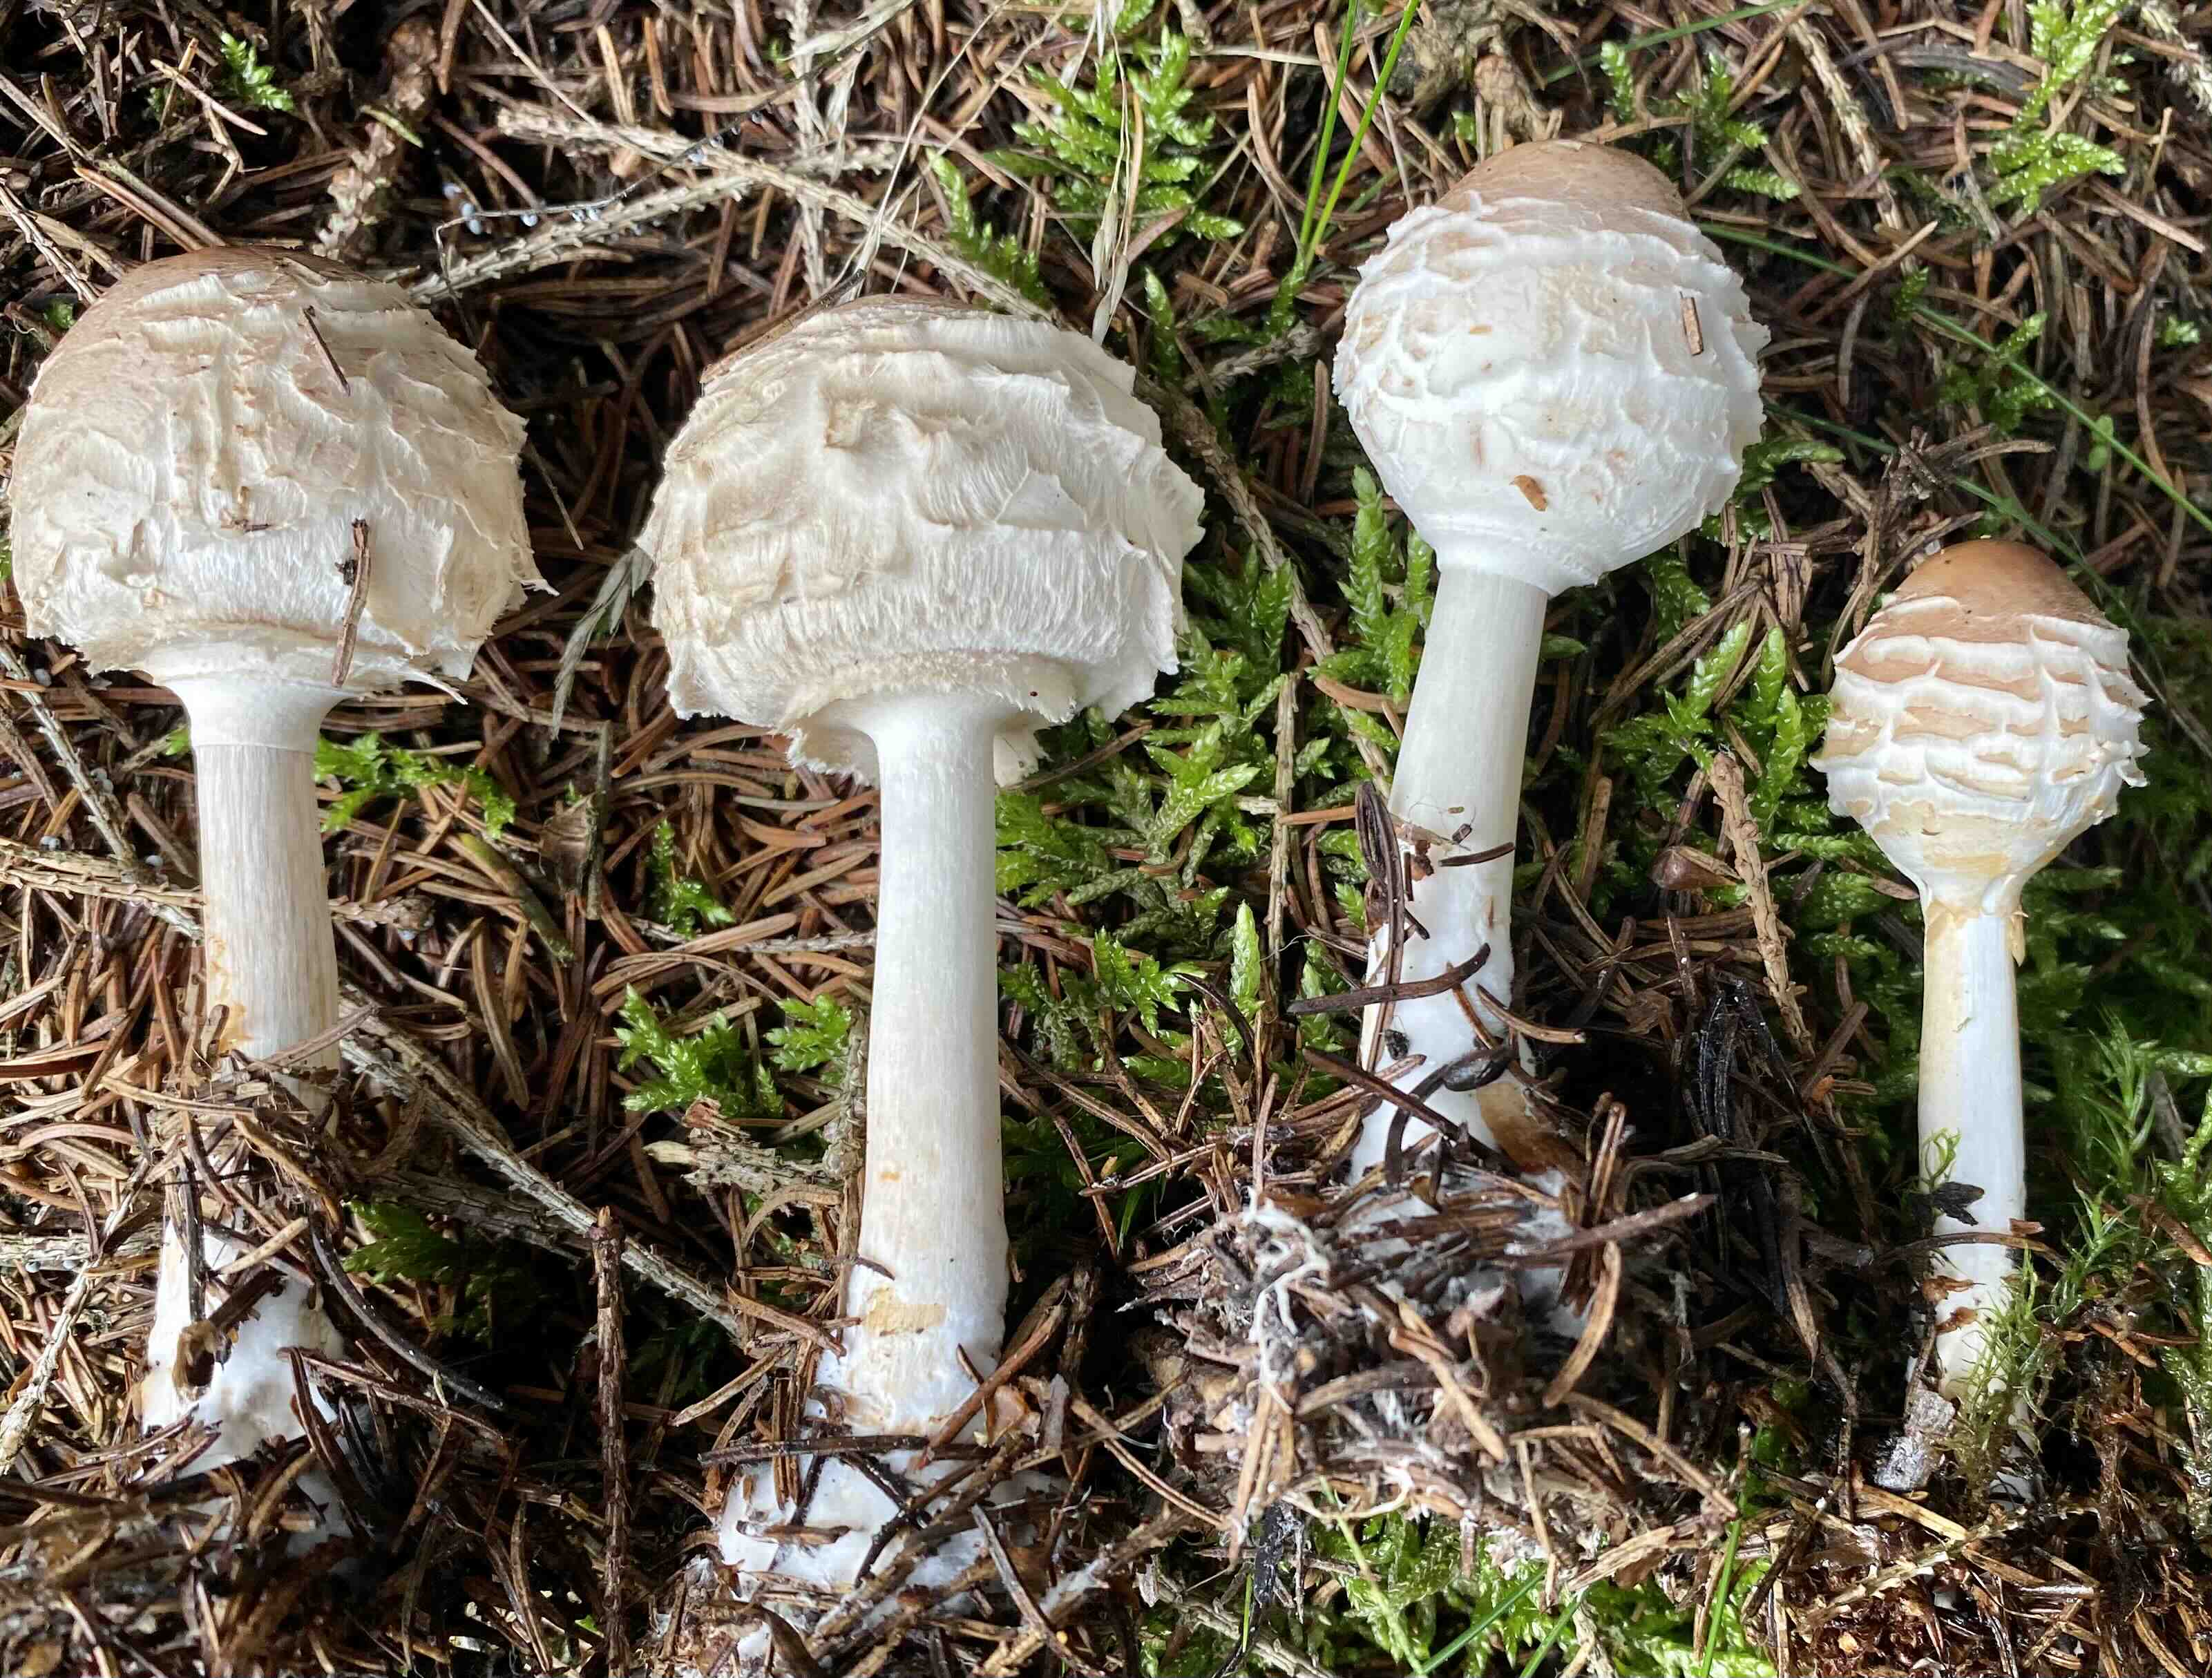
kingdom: Fungi
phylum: Basidiomycota
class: Agaricomycetes
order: Agaricales
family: Agaricaceae
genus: Chlorophyllum
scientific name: Chlorophyllum olivieri
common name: almindelig rabarberhat
